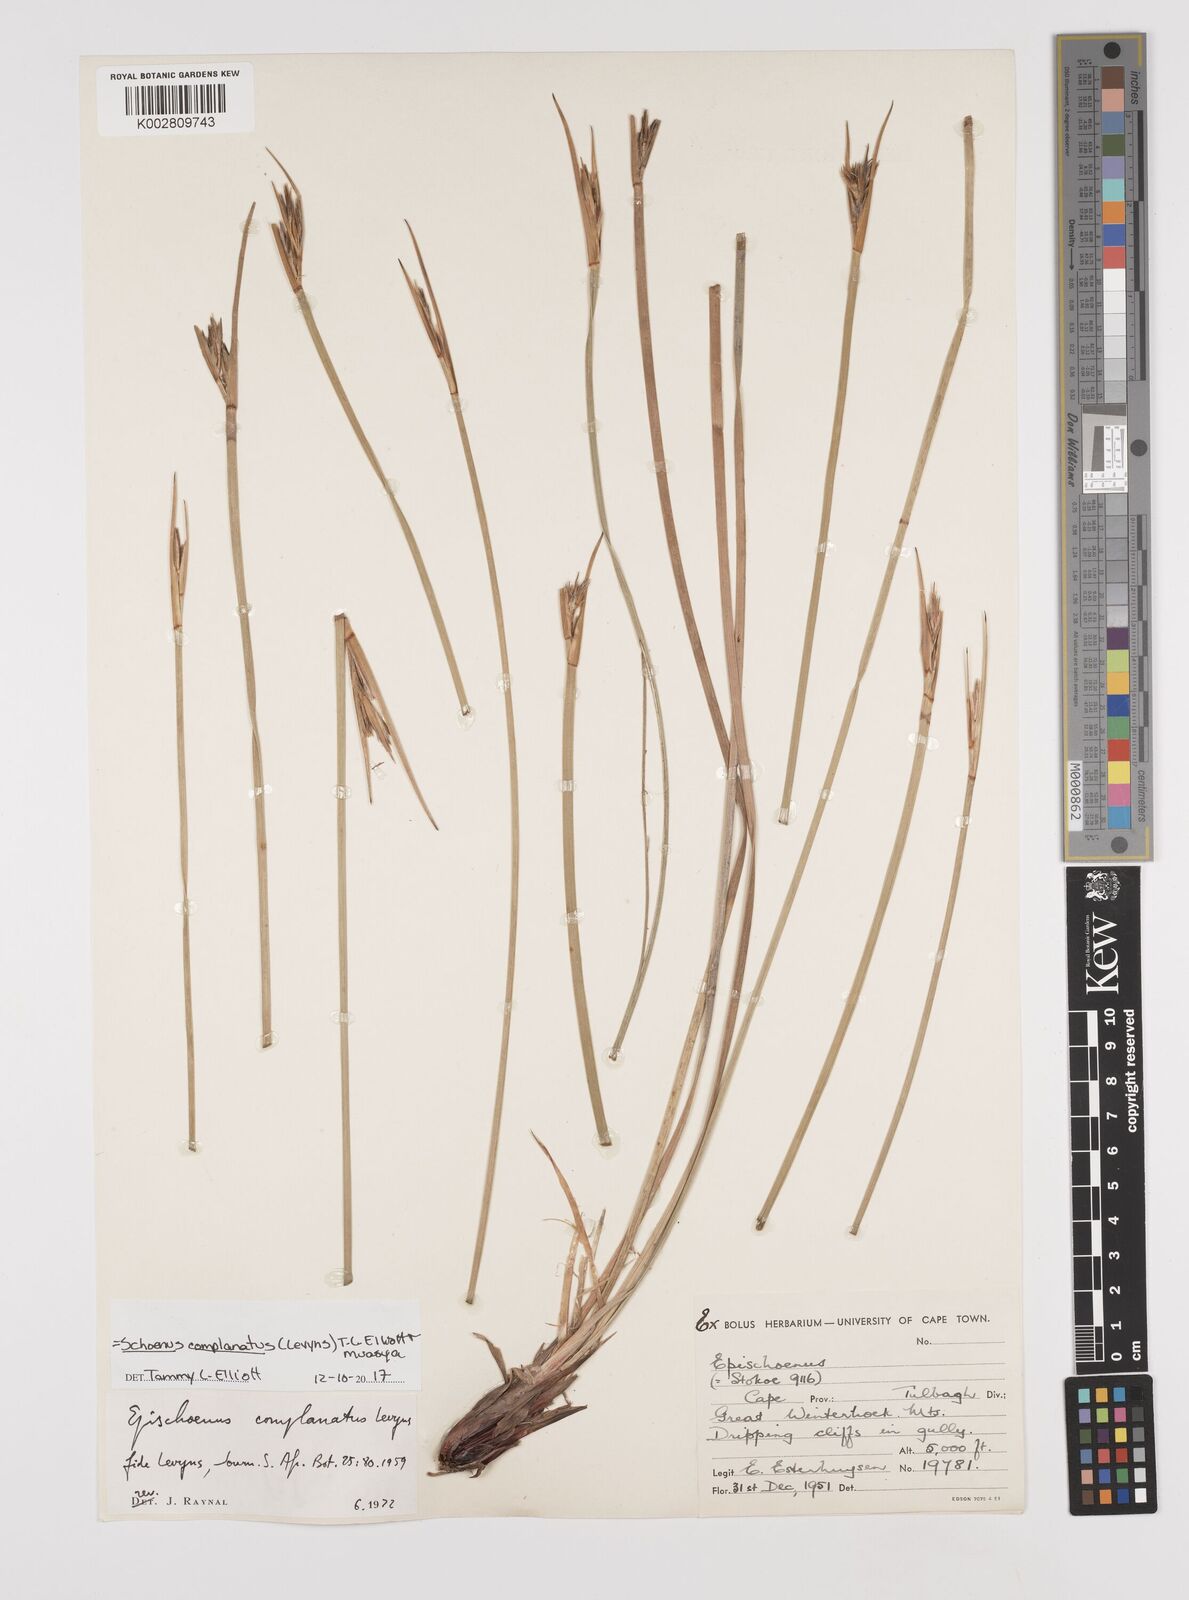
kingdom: Plantae
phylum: Tracheophyta
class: Liliopsida
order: Poales
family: Cyperaceae
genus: Blysmus
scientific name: Blysmus compressus
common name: Flat-sedge
